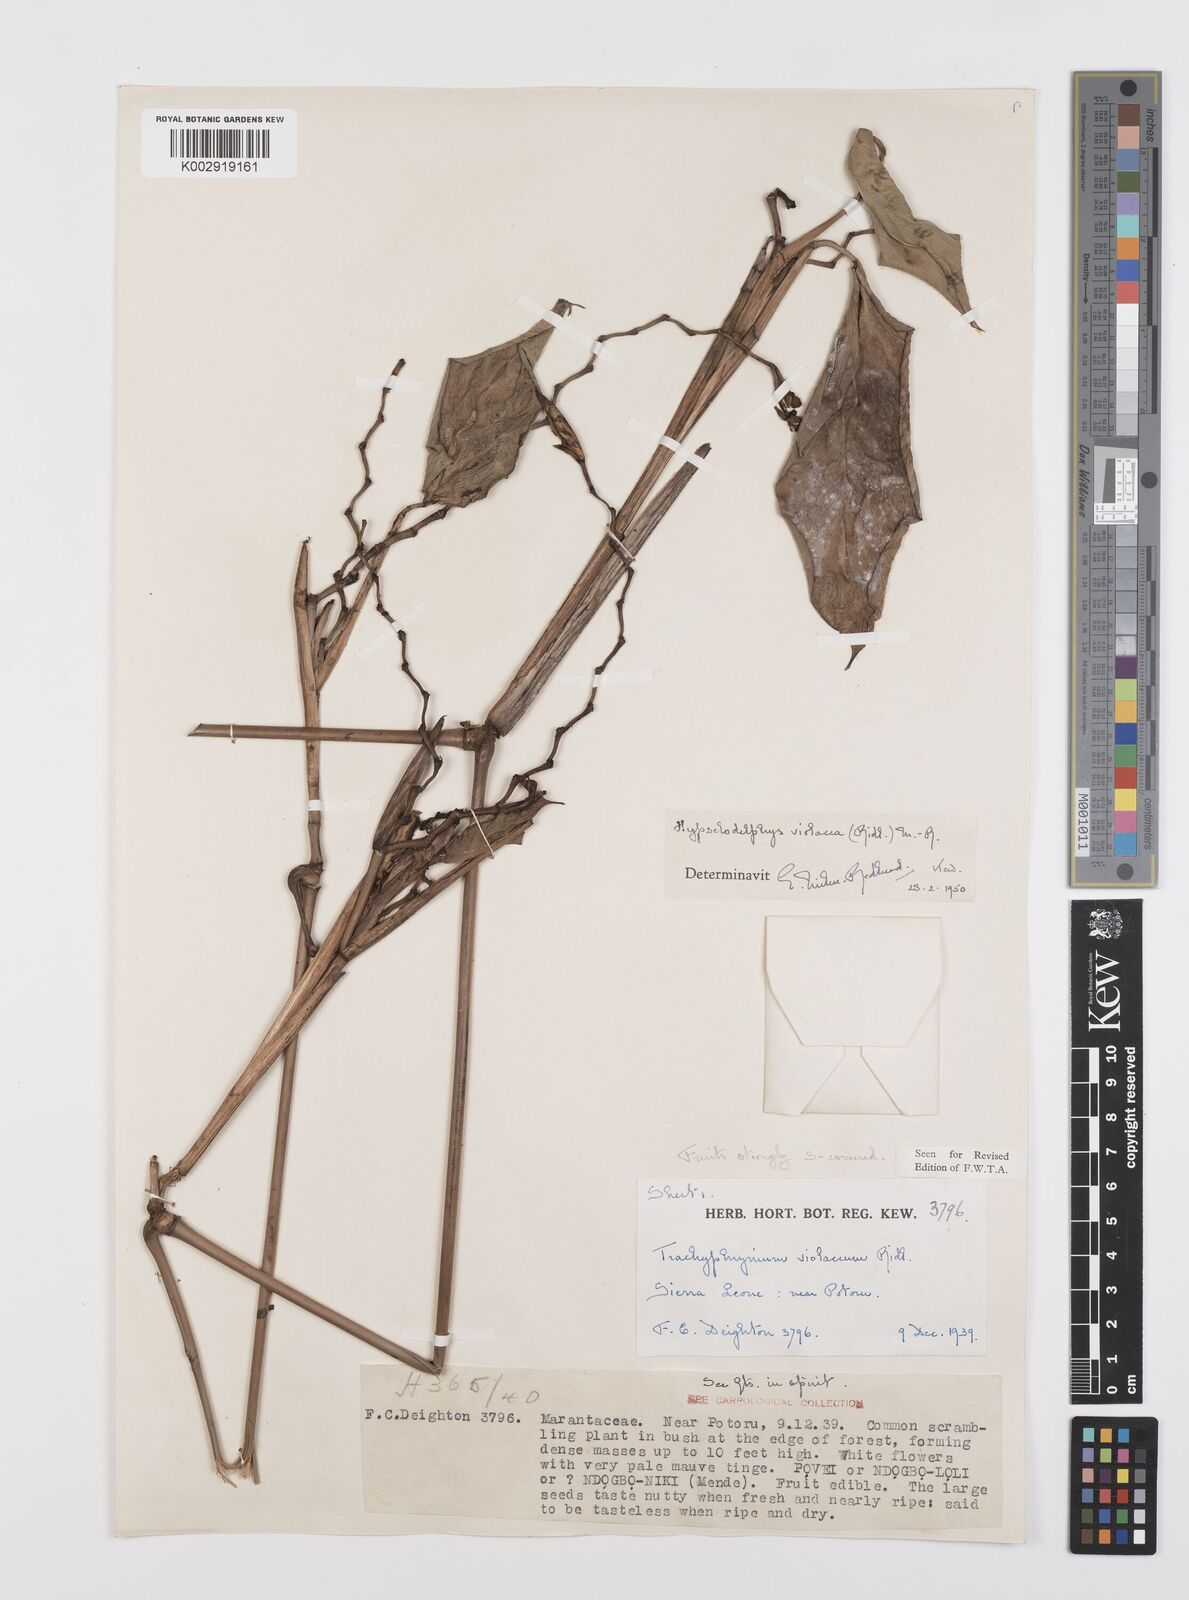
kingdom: Plantae
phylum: Tracheophyta
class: Liliopsida
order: Zingiberales
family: Marantaceae
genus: Hypselodelphys
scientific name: Hypselodelphys violacea
